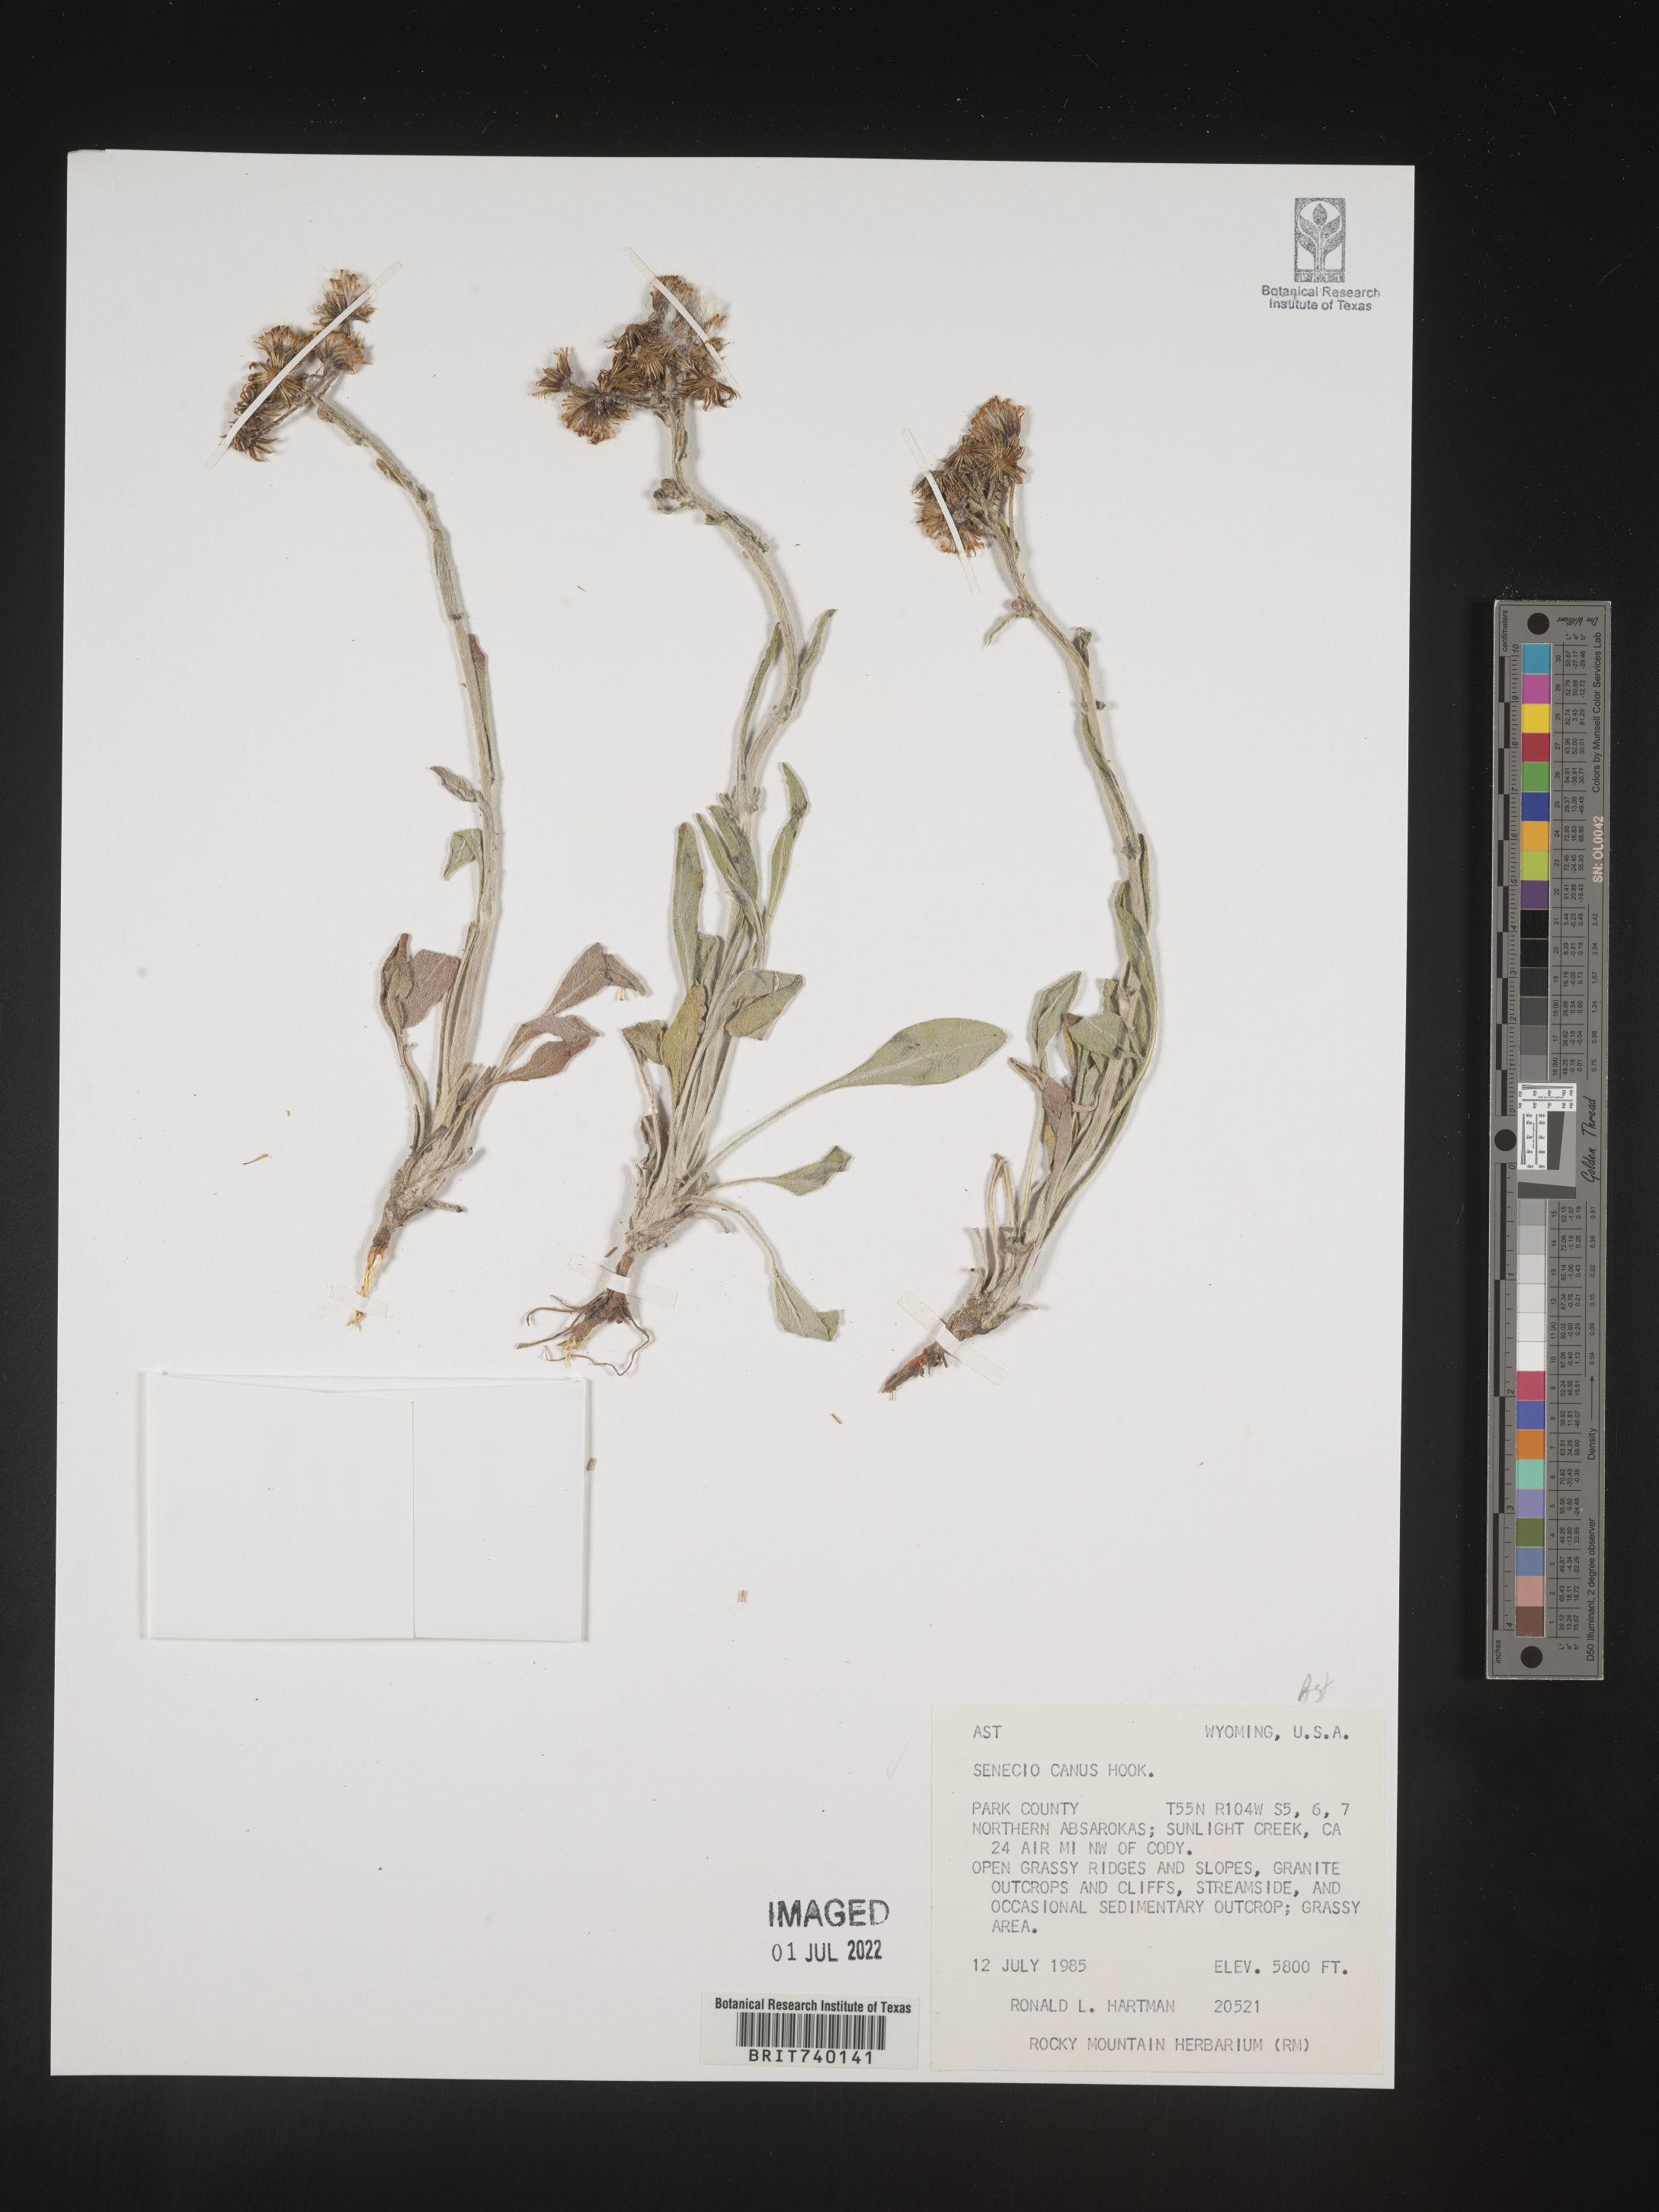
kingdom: Plantae
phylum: Tracheophyta
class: Magnoliopsida
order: Asterales
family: Asteraceae
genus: Packera
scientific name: Packera cana
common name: Woolly groundsel
